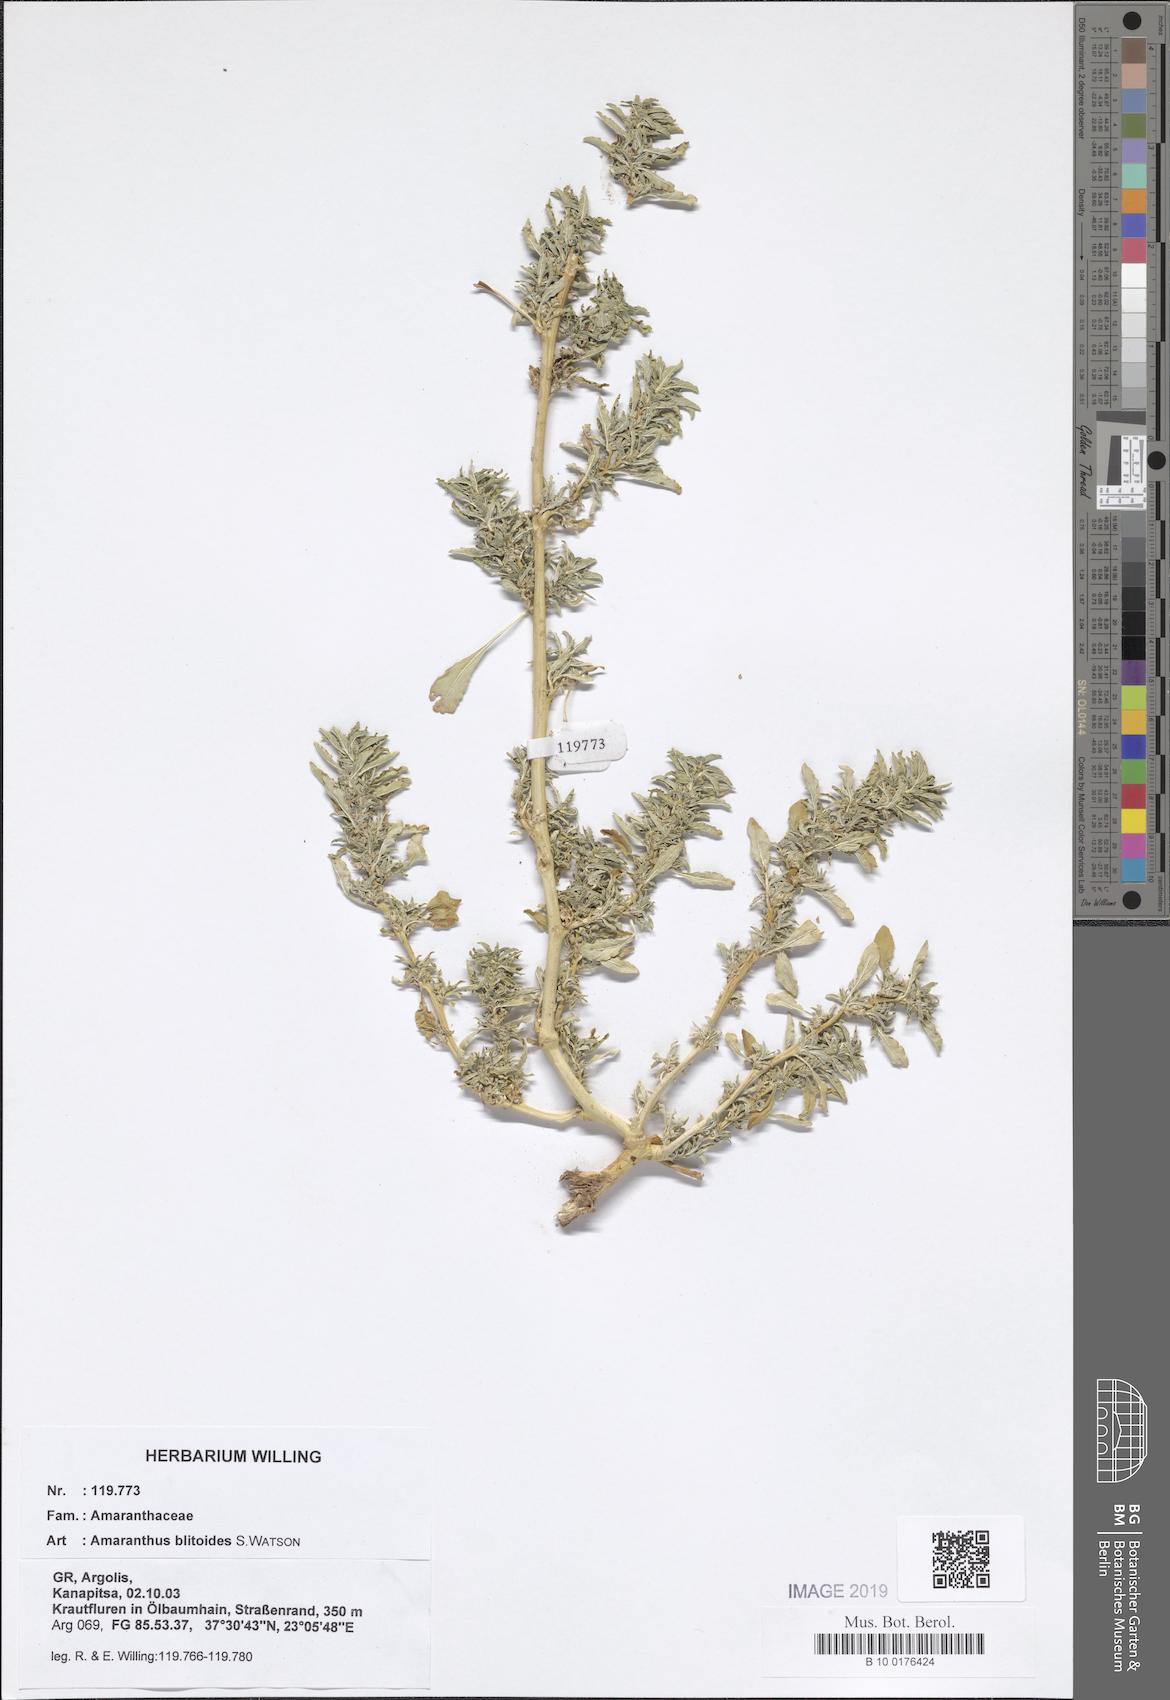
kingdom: Plantae
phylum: Tracheophyta
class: Magnoliopsida
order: Caryophyllales
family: Amaranthaceae
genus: Amaranthus
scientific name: Amaranthus blitoides
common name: Prostrate pigweed
